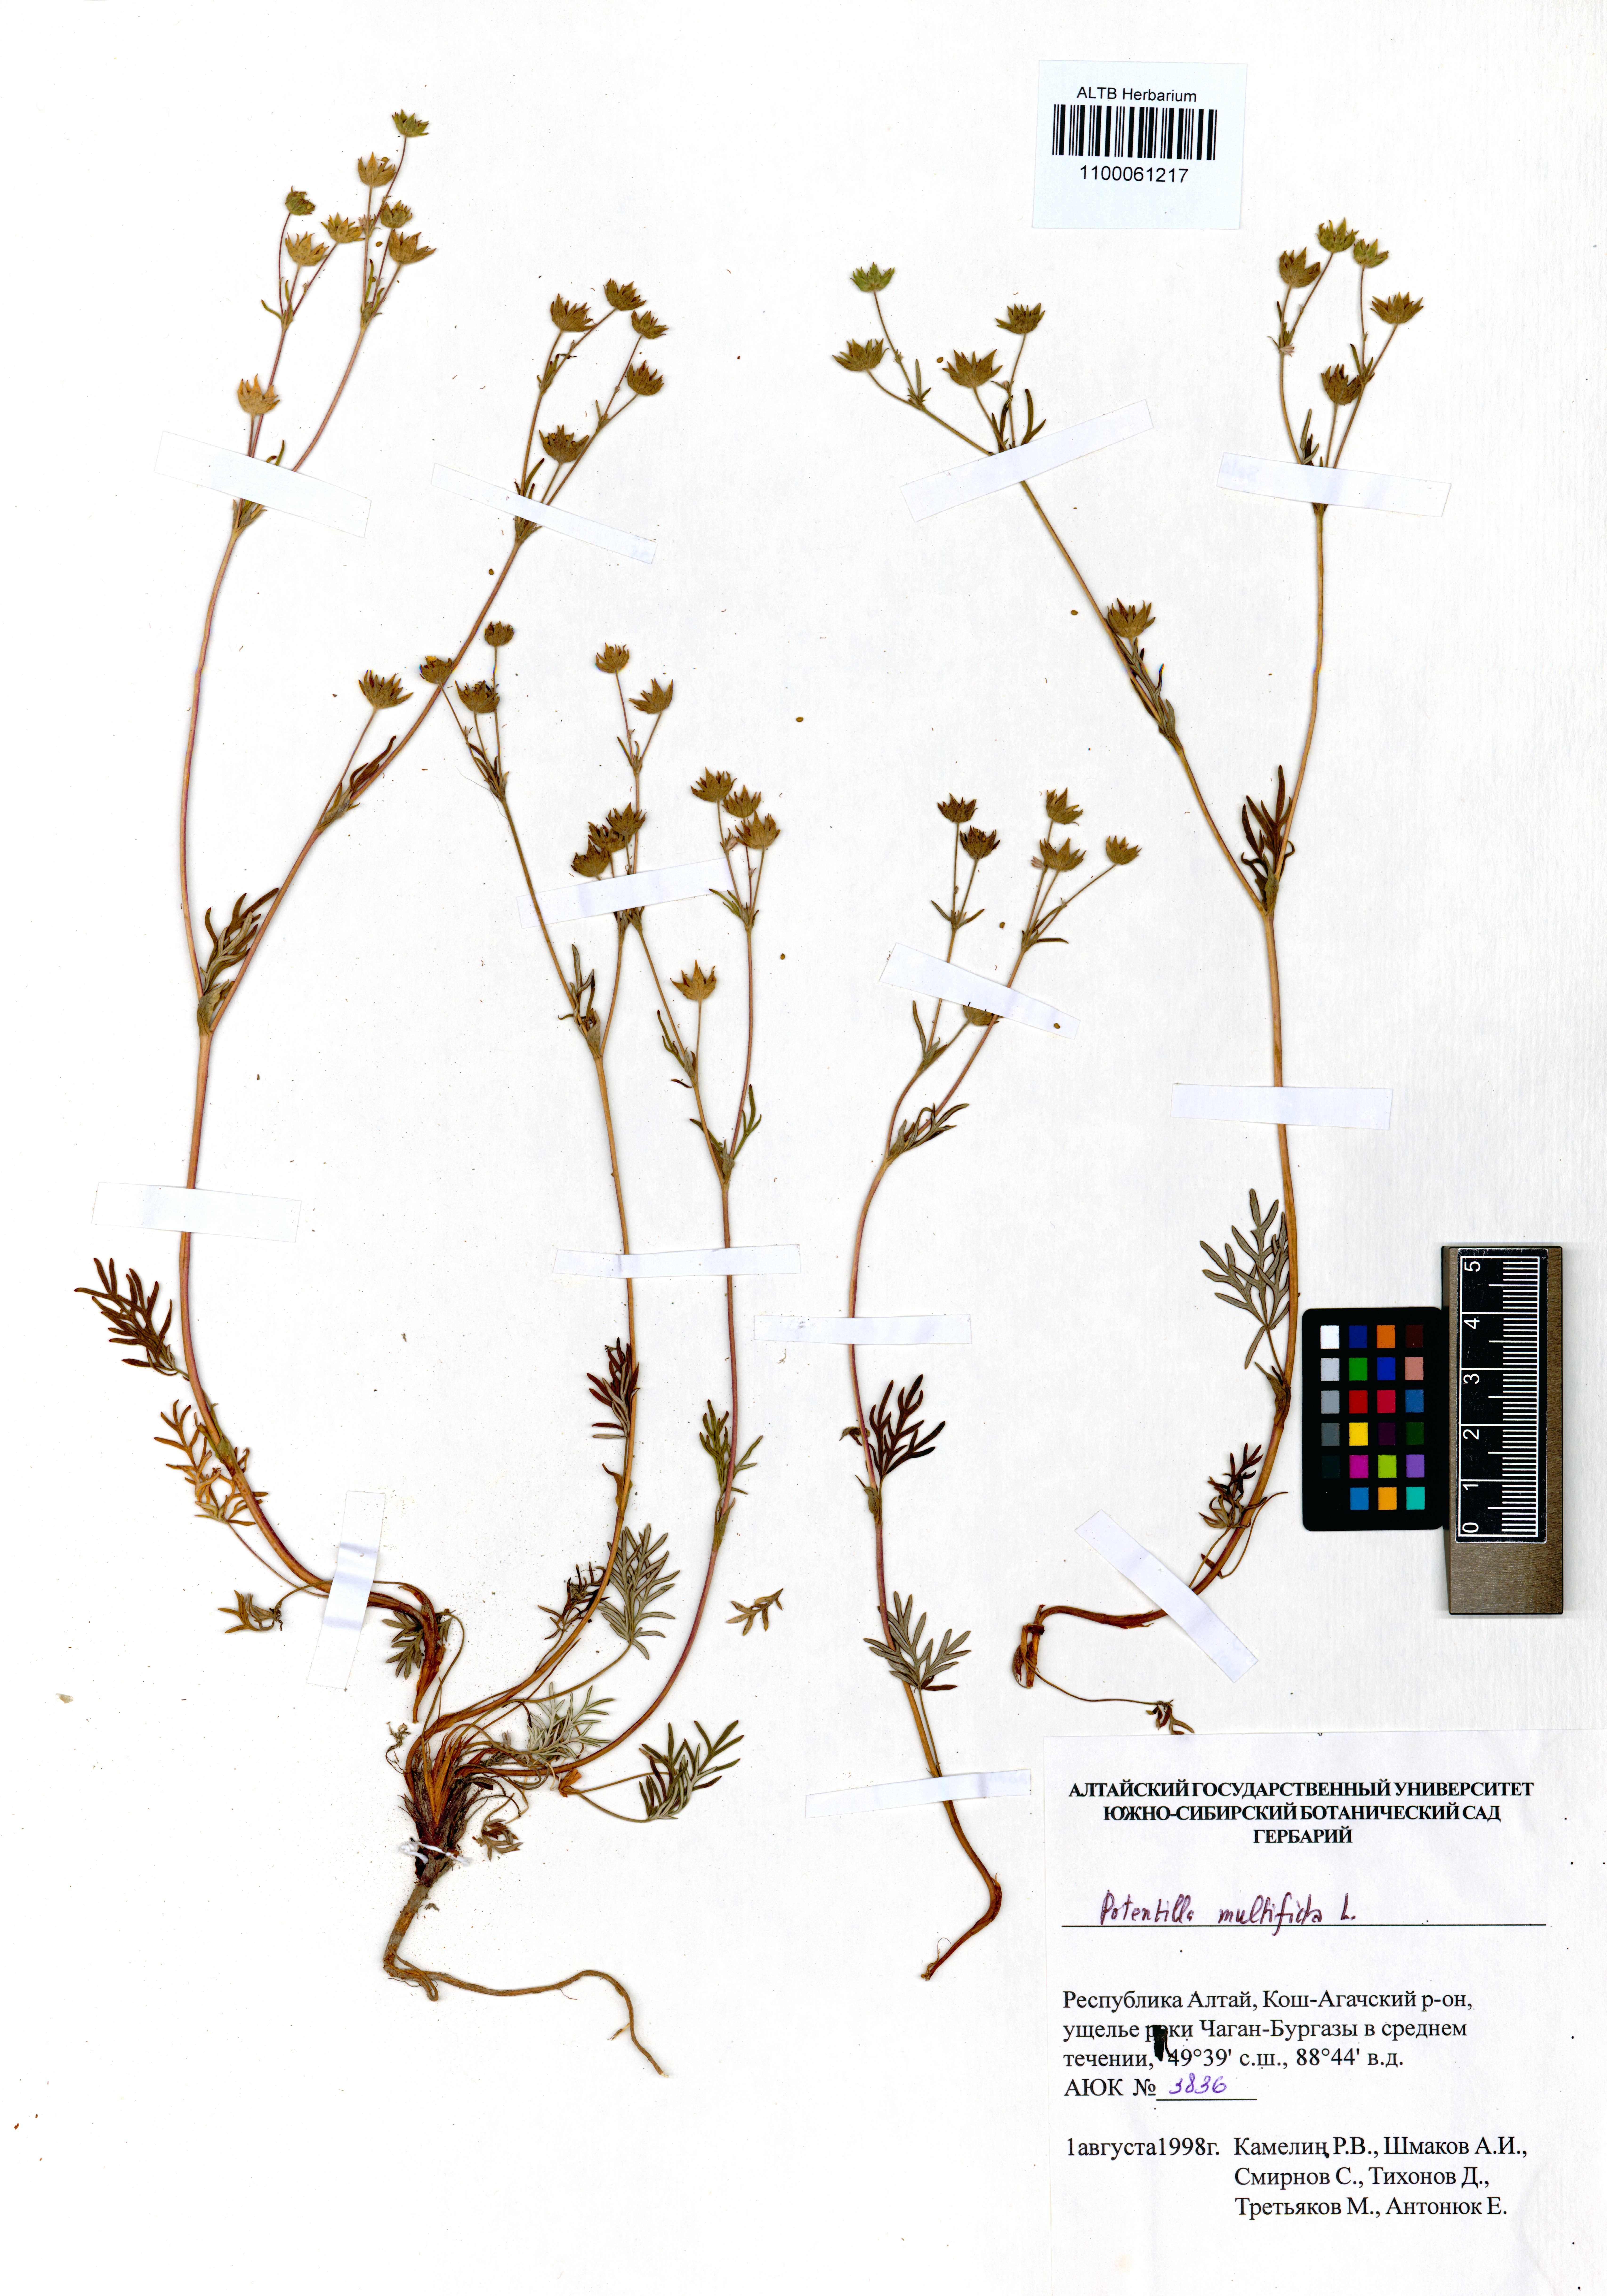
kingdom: Plantae
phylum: Tracheophyta
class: Magnoliopsida
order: Rosales
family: Rosaceae
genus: Potentilla
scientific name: Potentilla multifida
